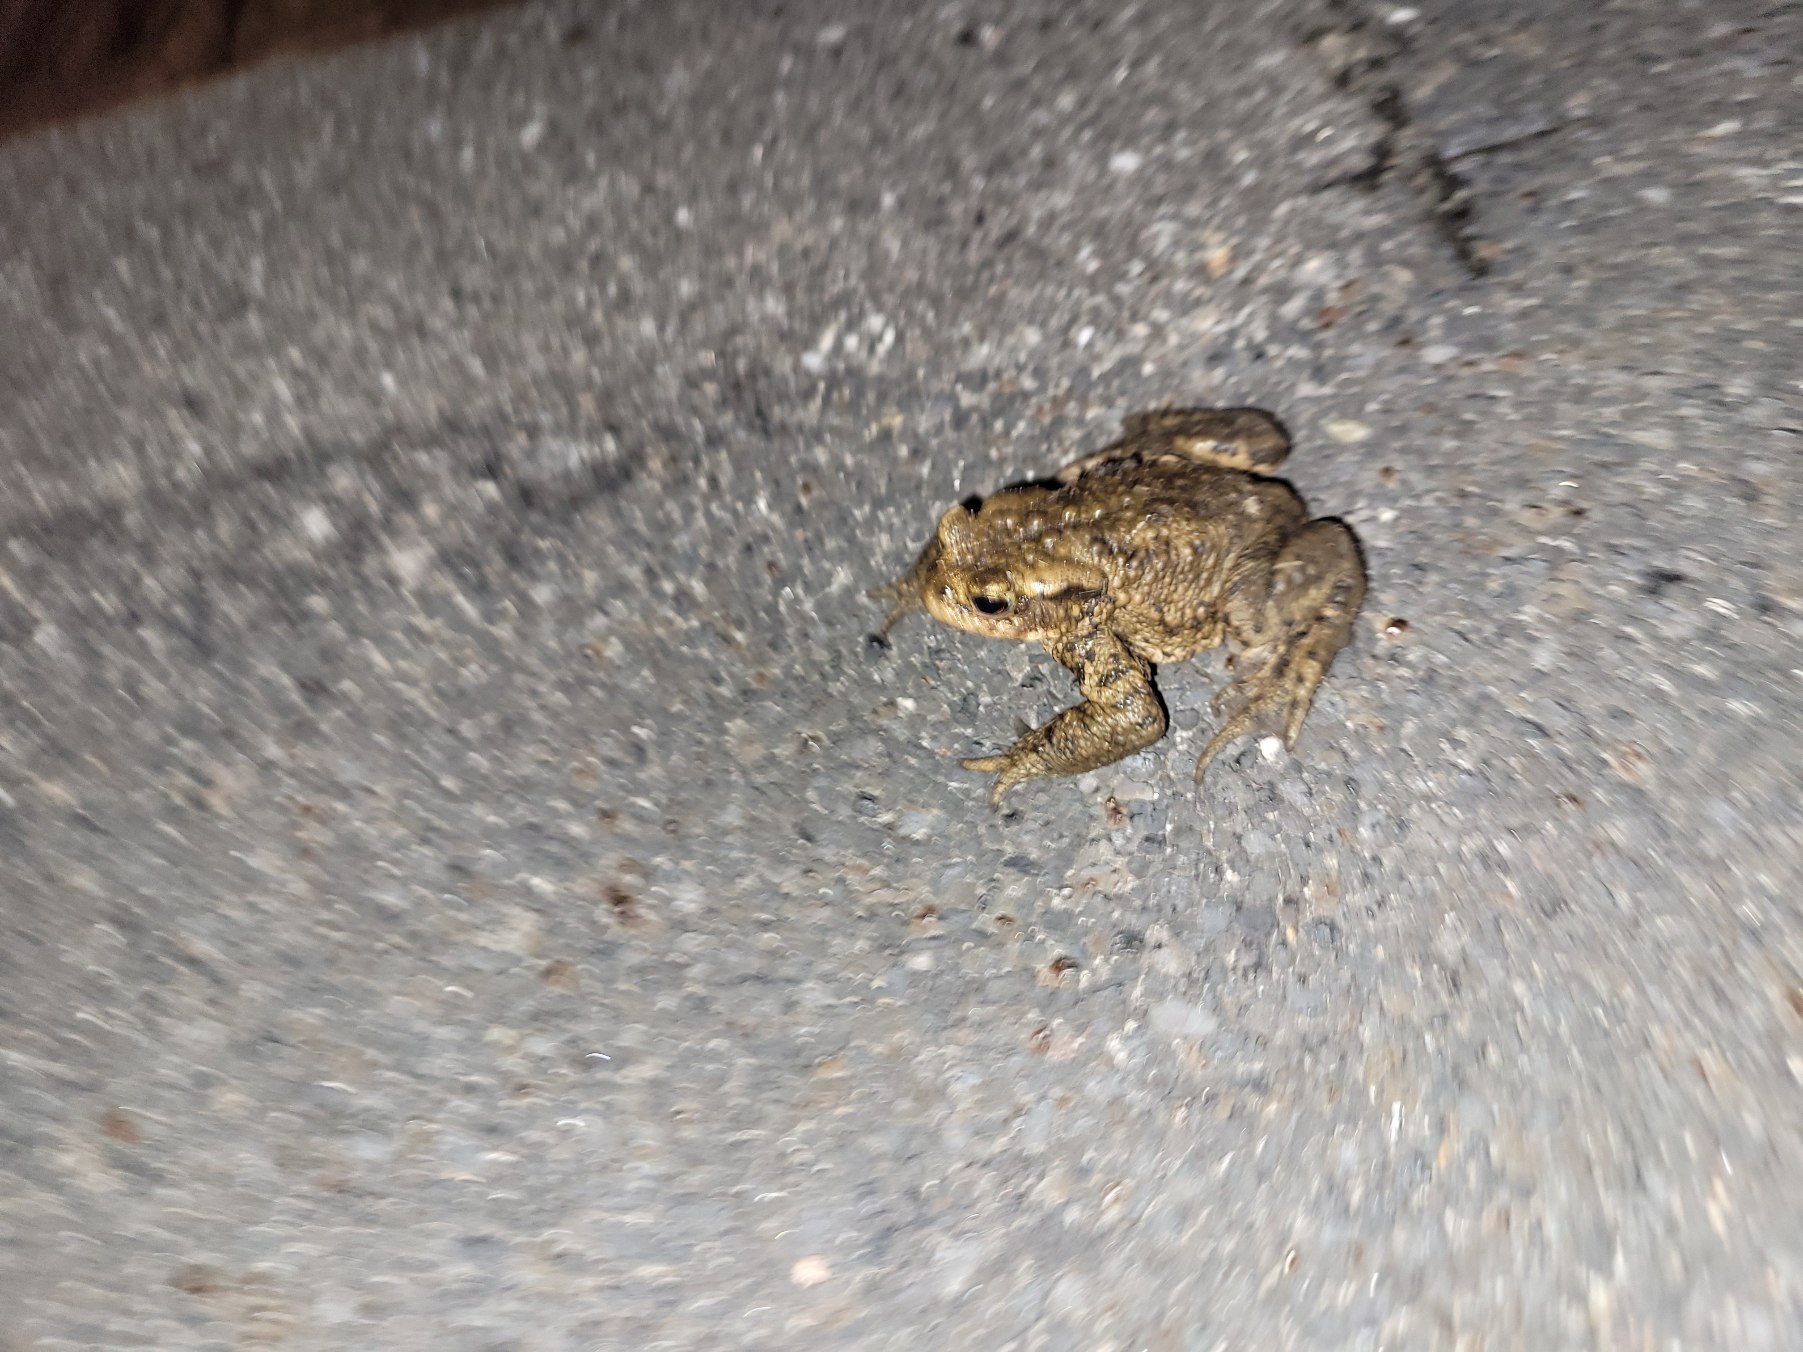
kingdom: Animalia
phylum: Chordata
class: Amphibia
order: Anura
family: Bufonidae
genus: Bufo
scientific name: Bufo bufo
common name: Skrubtudse
